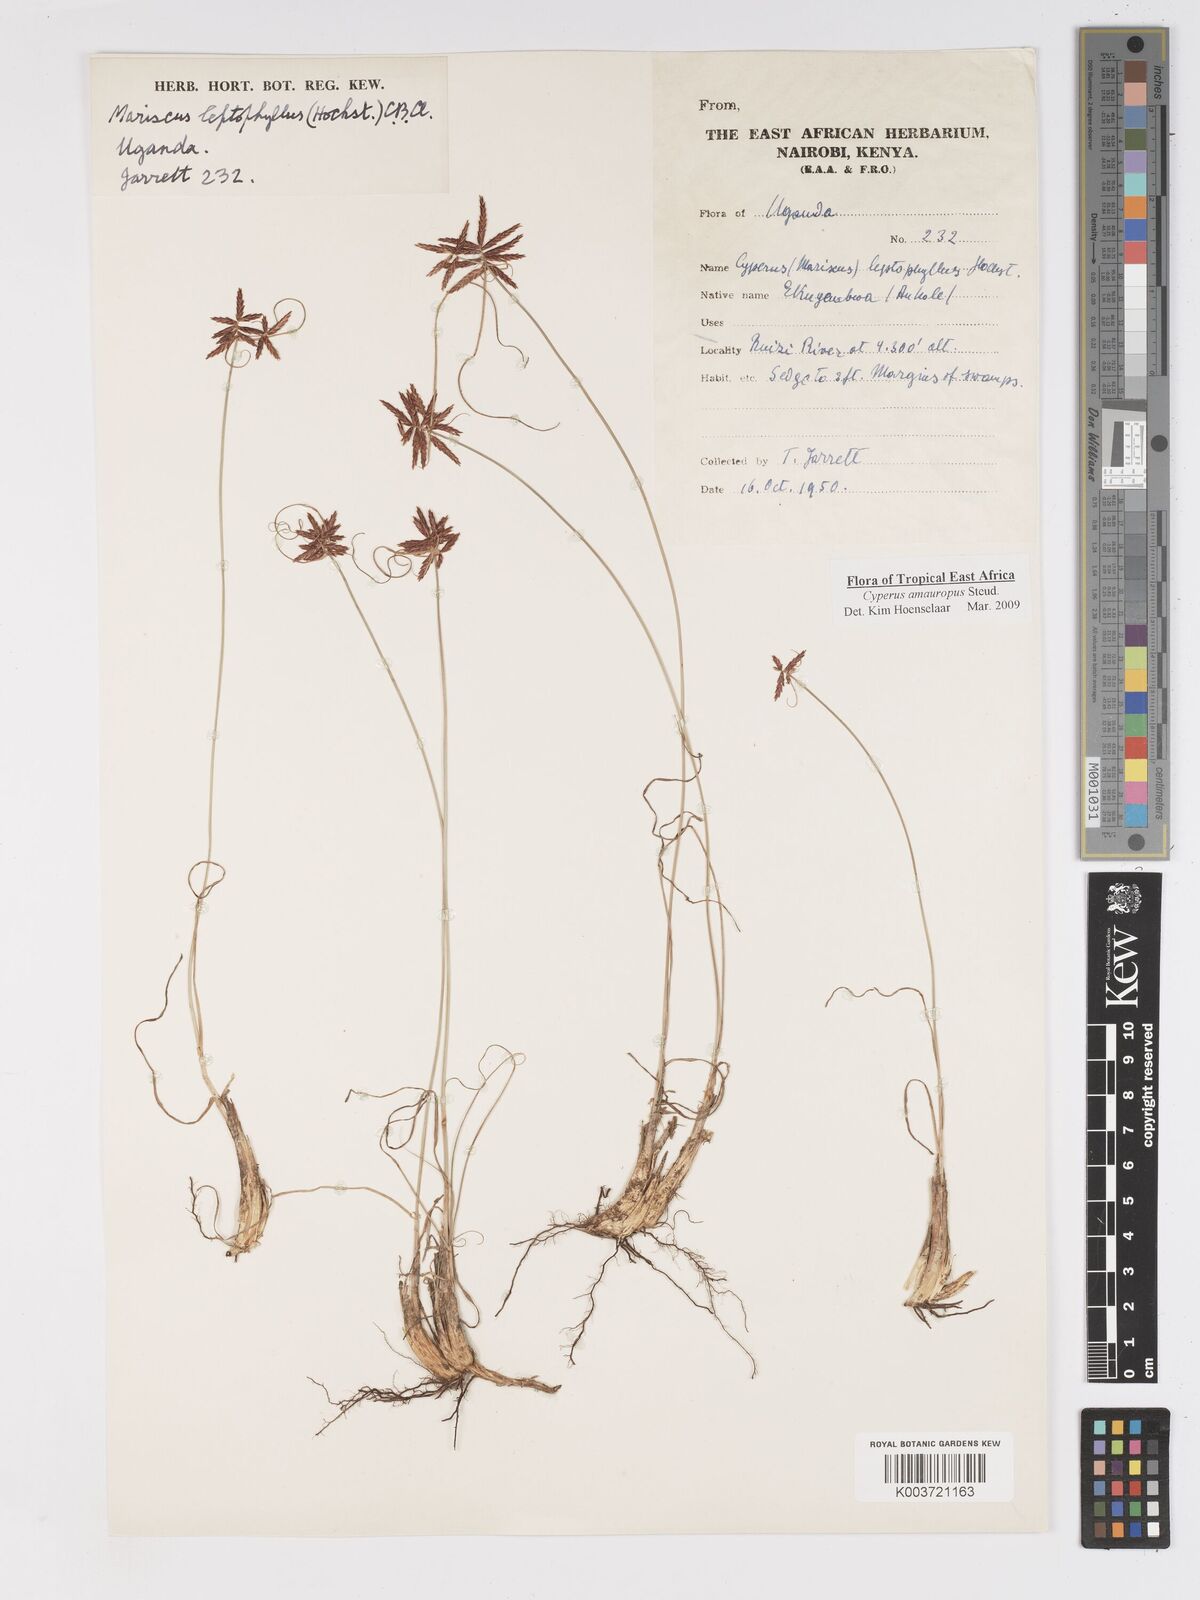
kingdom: Plantae
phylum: Tracheophyta
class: Liliopsida
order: Poales
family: Cyperaceae
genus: Cyperus
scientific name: Cyperus amauropus
